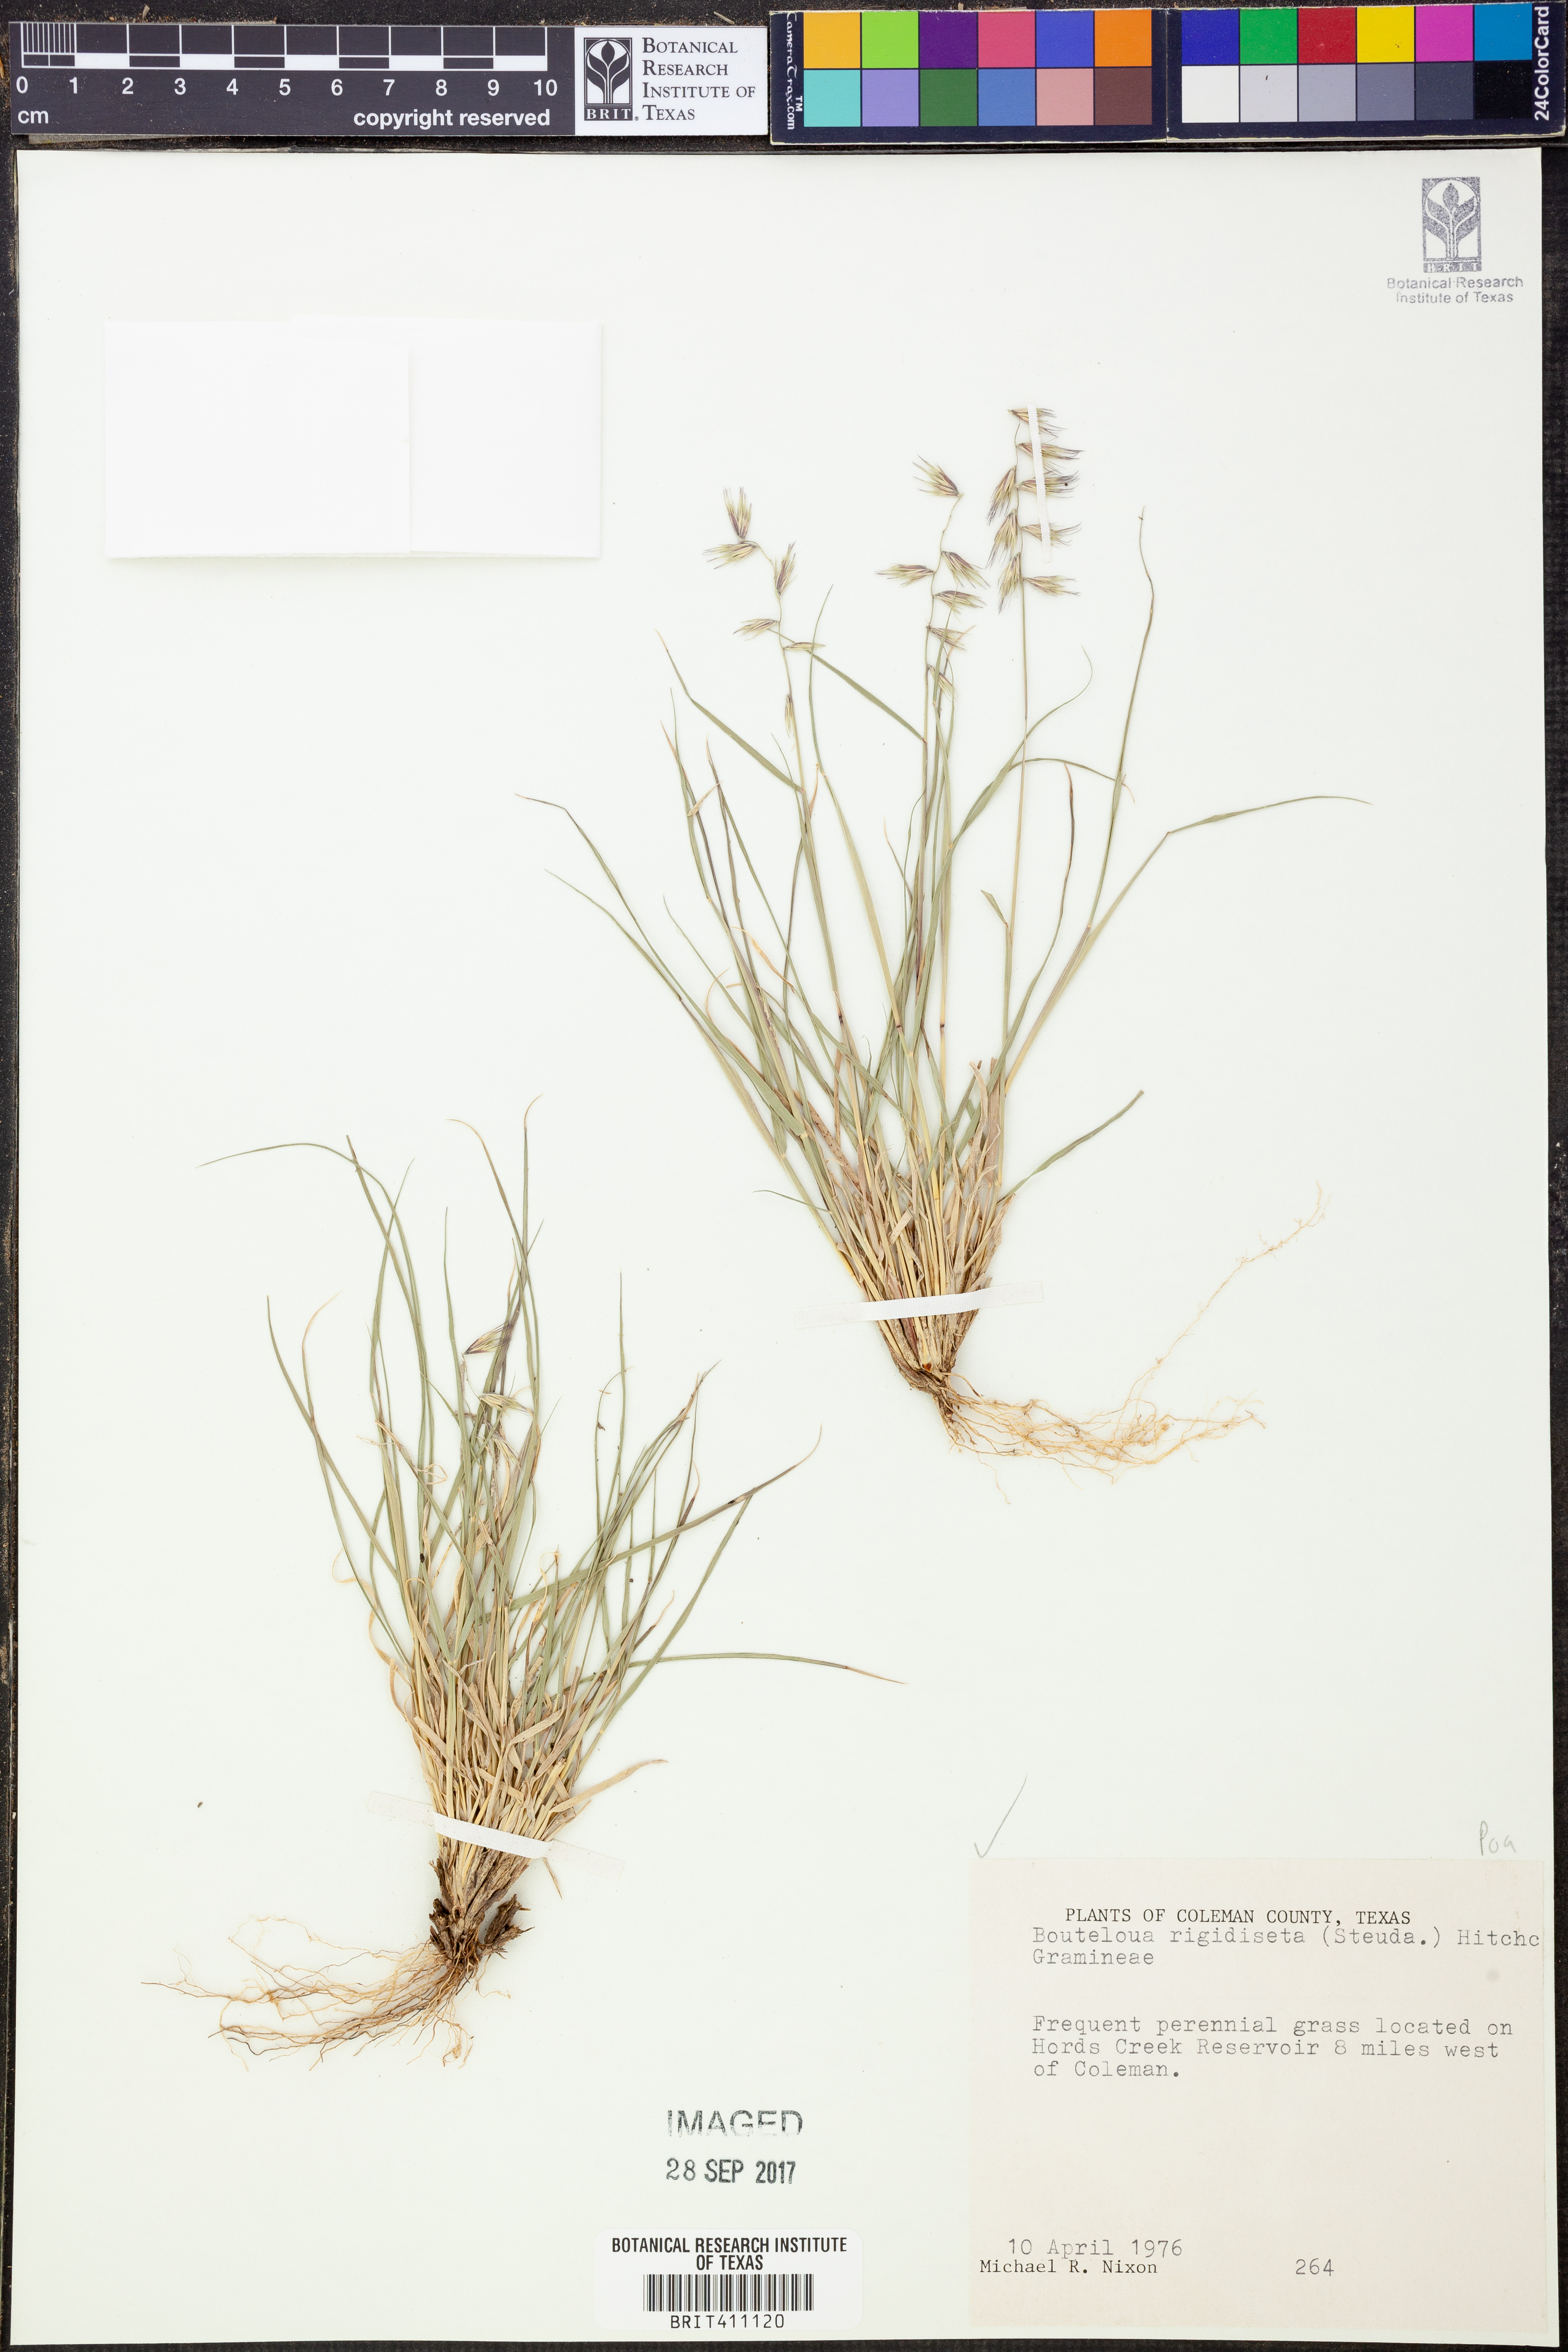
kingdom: Plantae
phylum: Tracheophyta
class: Liliopsida
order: Poales
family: Poaceae
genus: Bouteloua
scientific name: Bouteloua rigidiseta
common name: Texas grama
